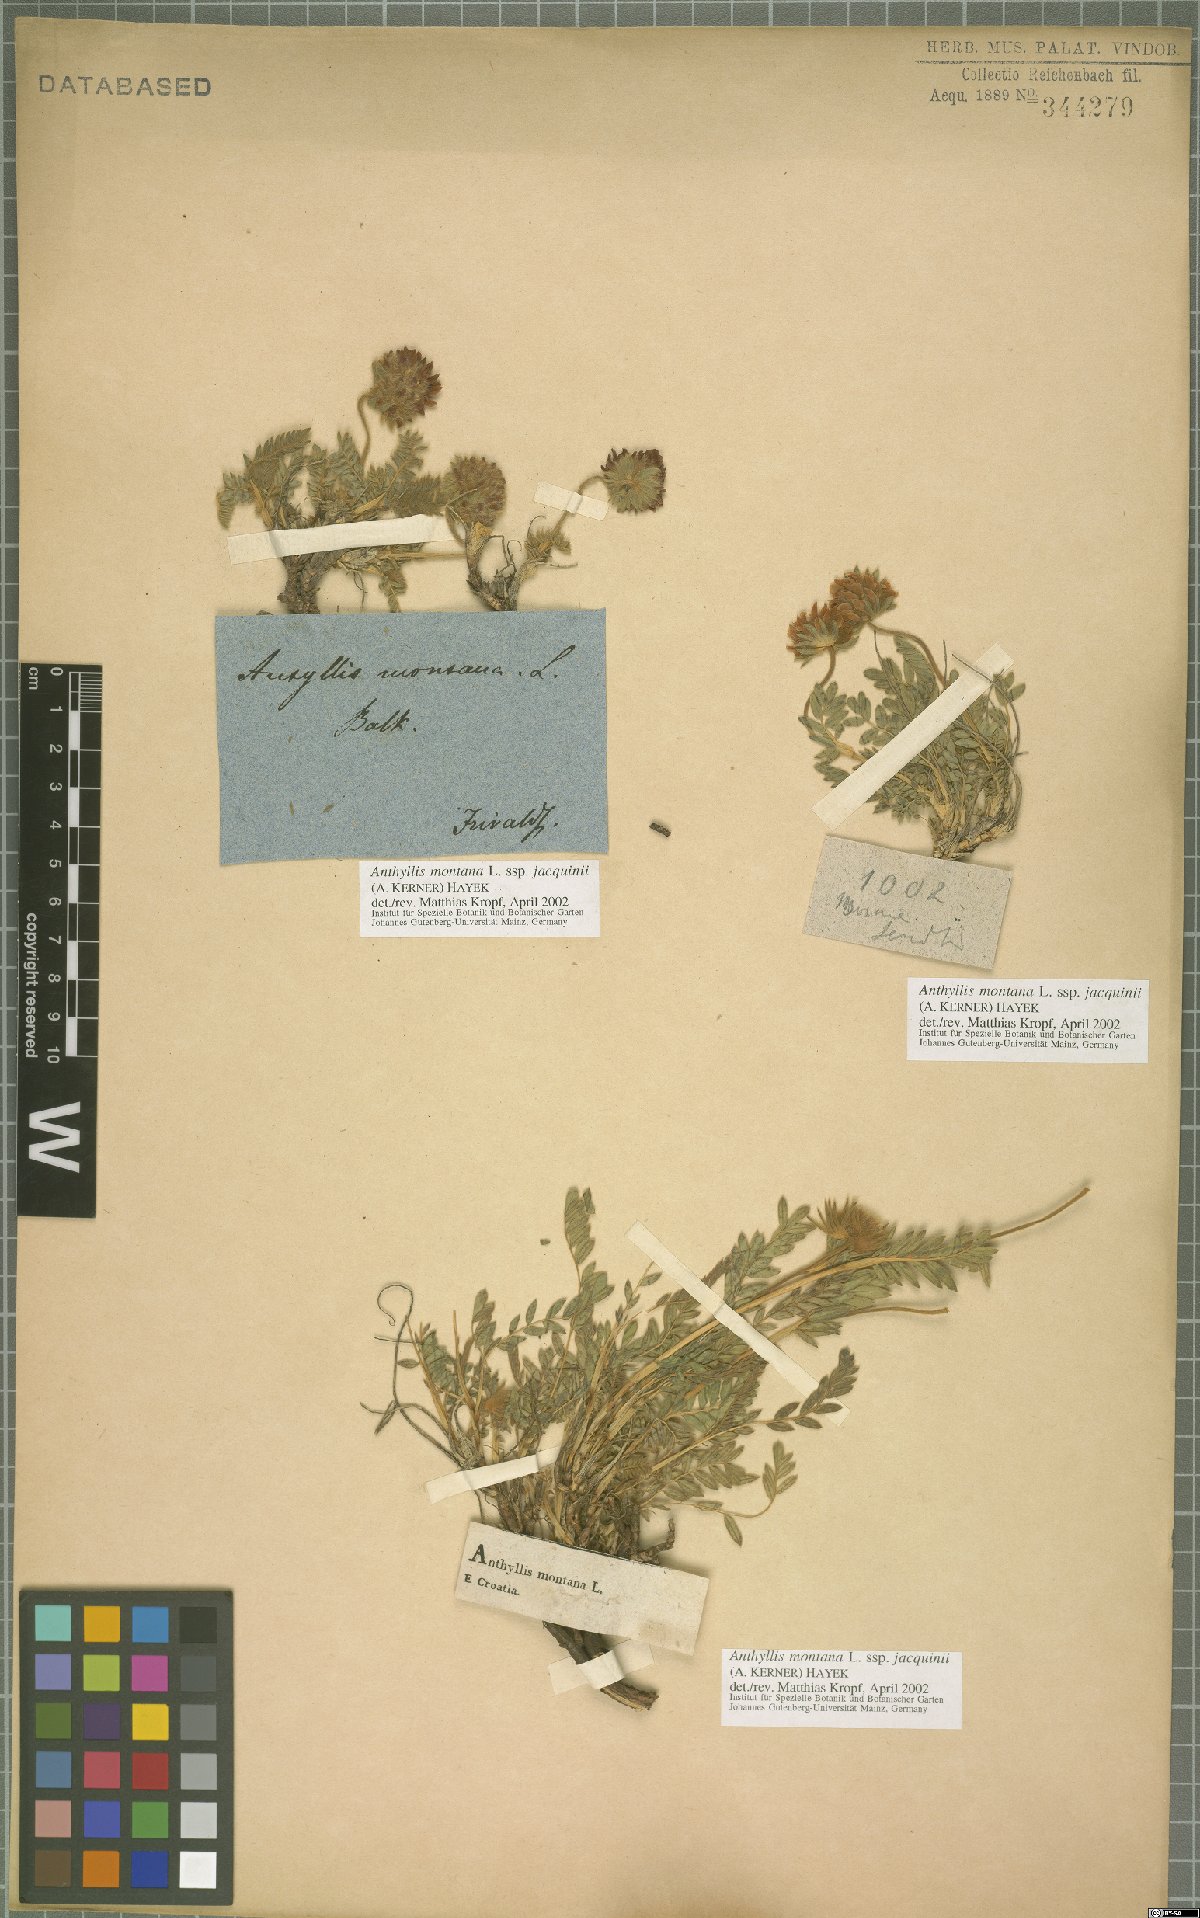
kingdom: Plantae
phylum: Tracheophyta
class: Magnoliopsida
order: Fabales
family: Fabaceae
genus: Anthyllis
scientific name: Anthyllis montana
